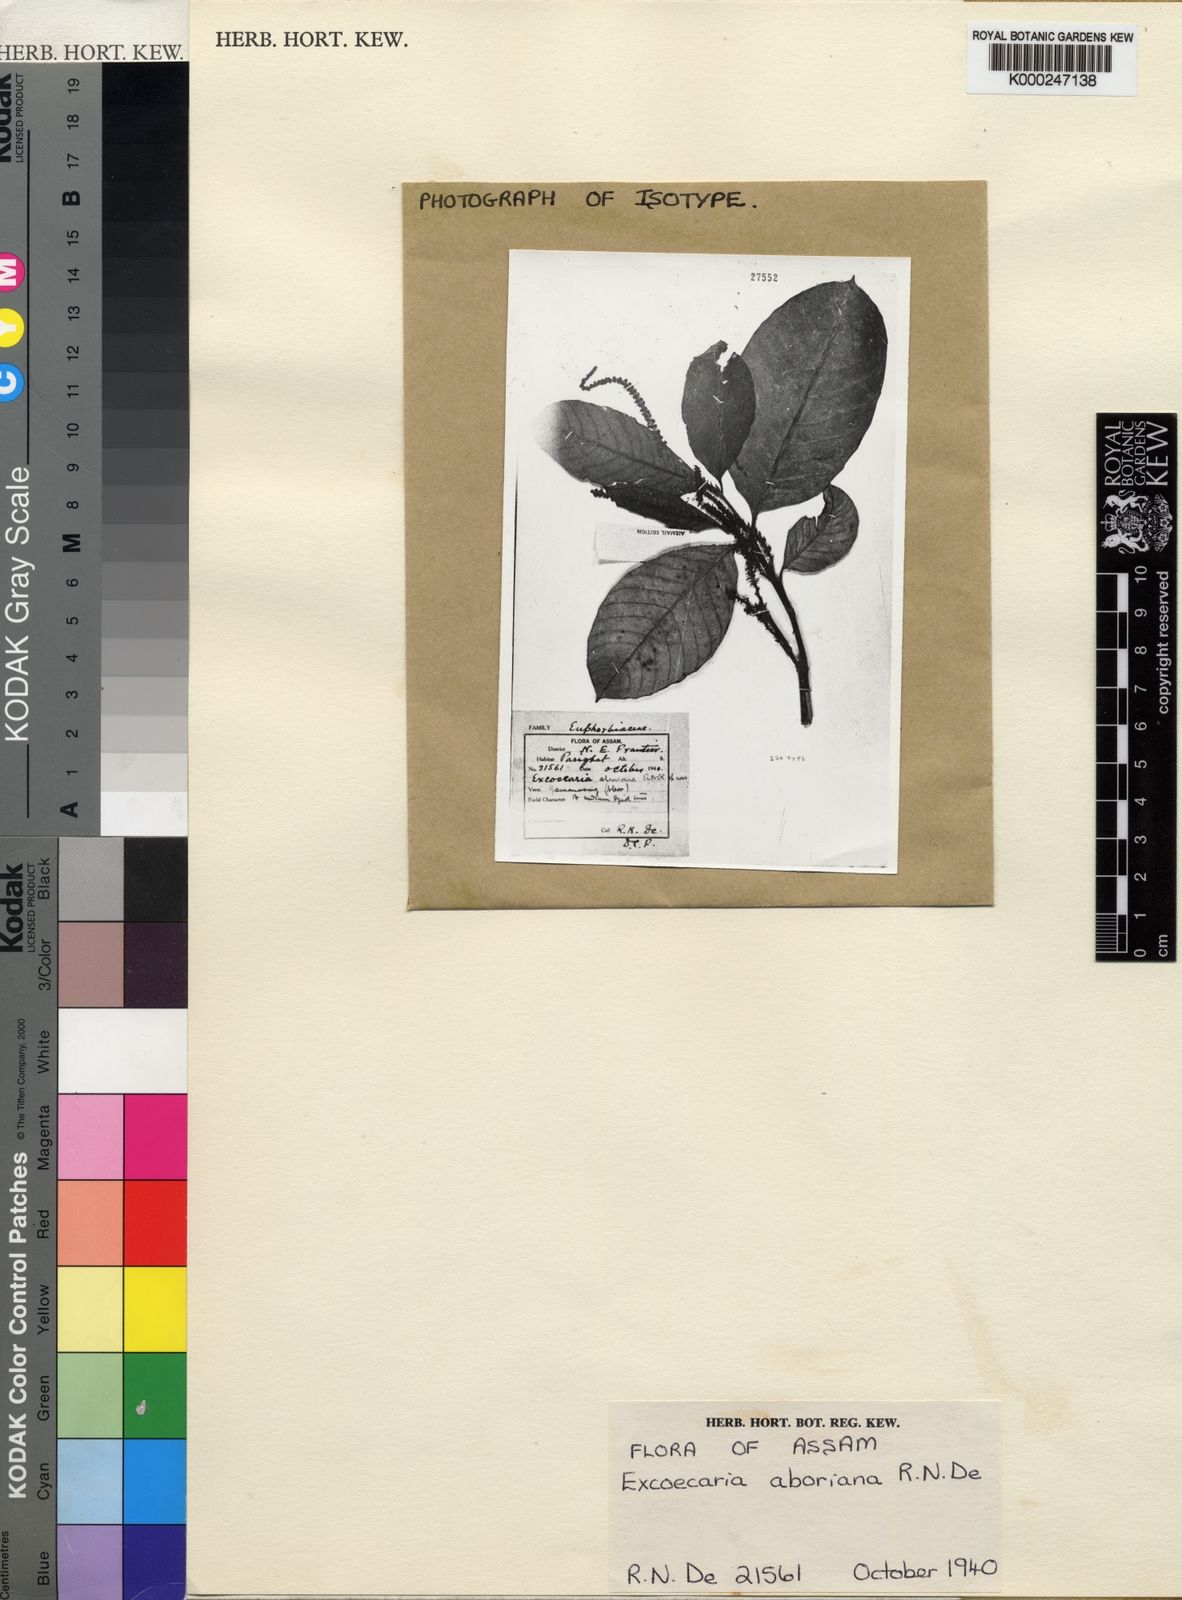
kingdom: Plantae
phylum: Tracheophyta
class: Magnoliopsida
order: Malpighiales
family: Euphorbiaceae
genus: Excoecaria
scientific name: Excoecaria oppositifolia
